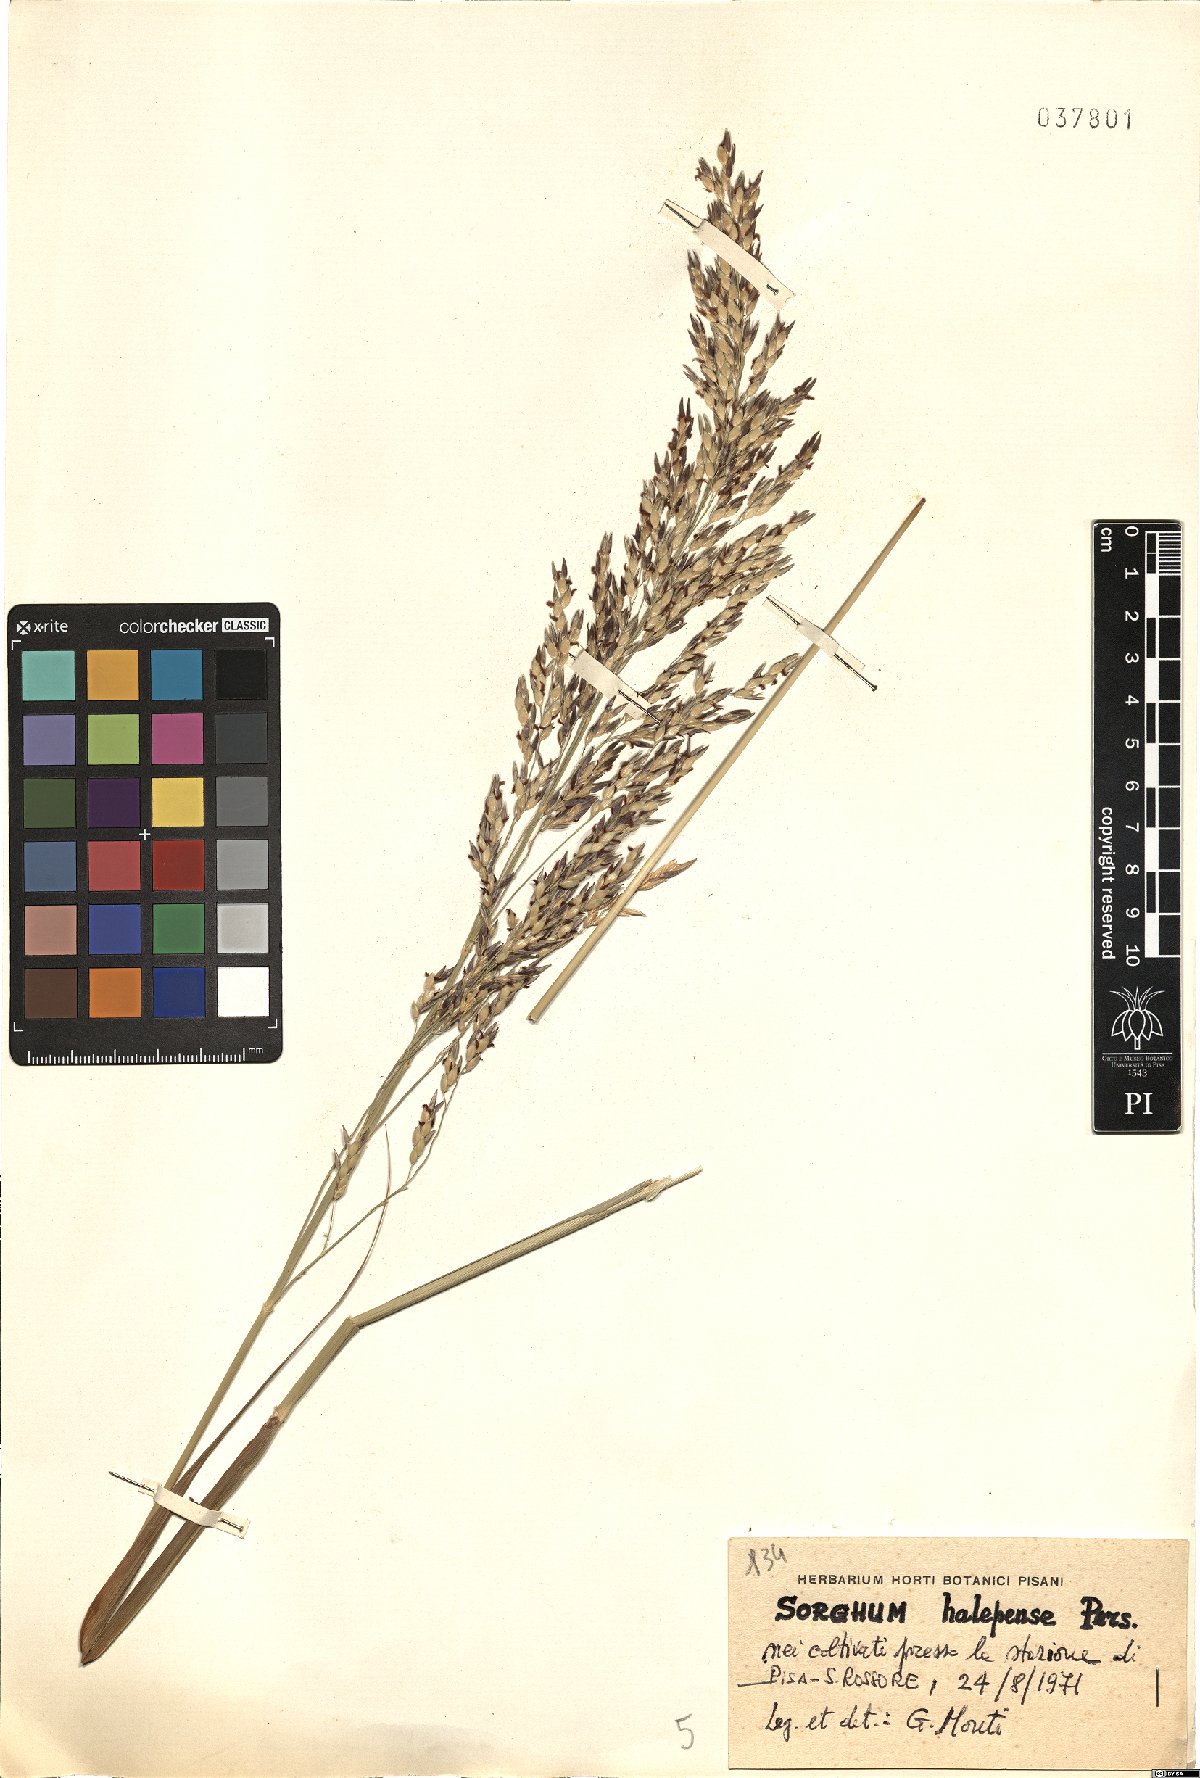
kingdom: Plantae
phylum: Tracheophyta
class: Liliopsida
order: Poales
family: Poaceae
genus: Sorghum
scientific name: Sorghum halepense
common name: Johnson-grass
